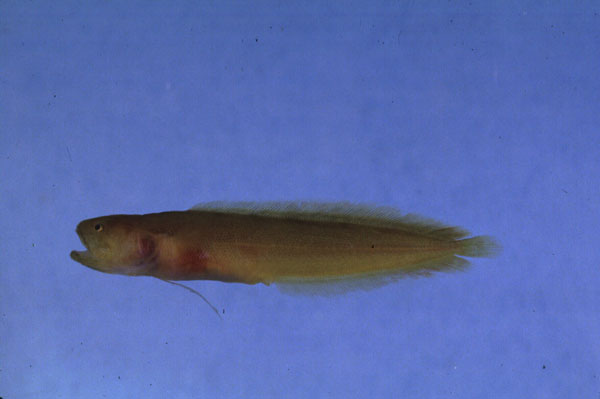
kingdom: Animalia
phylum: Chordata
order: Ophidiiformes
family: Bythitidae
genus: Dinematichthys
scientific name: Dinematichthys iluocoeteoides
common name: Small eye brotula
